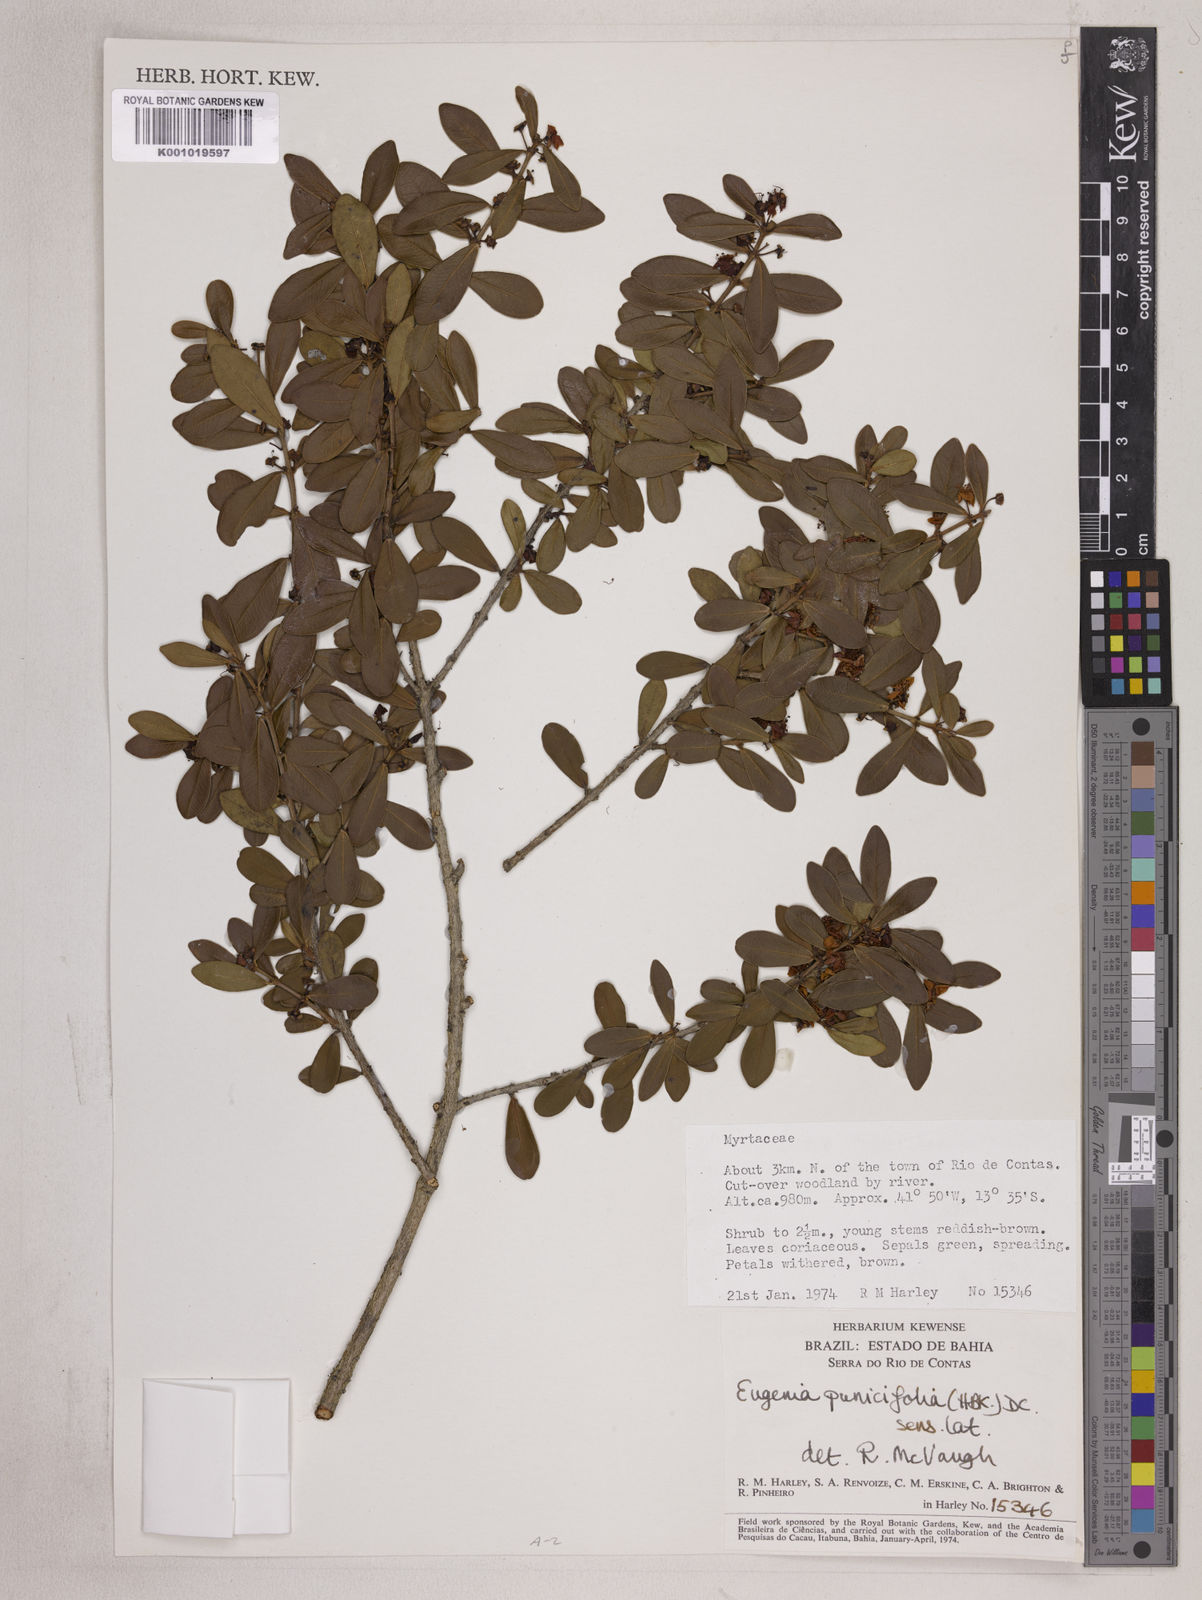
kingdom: Plantae
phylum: Tracheophyta
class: Magnoliopsida
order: Myrtales
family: Myrtaceae
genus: Eugenia
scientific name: Eugenia punicifolia
